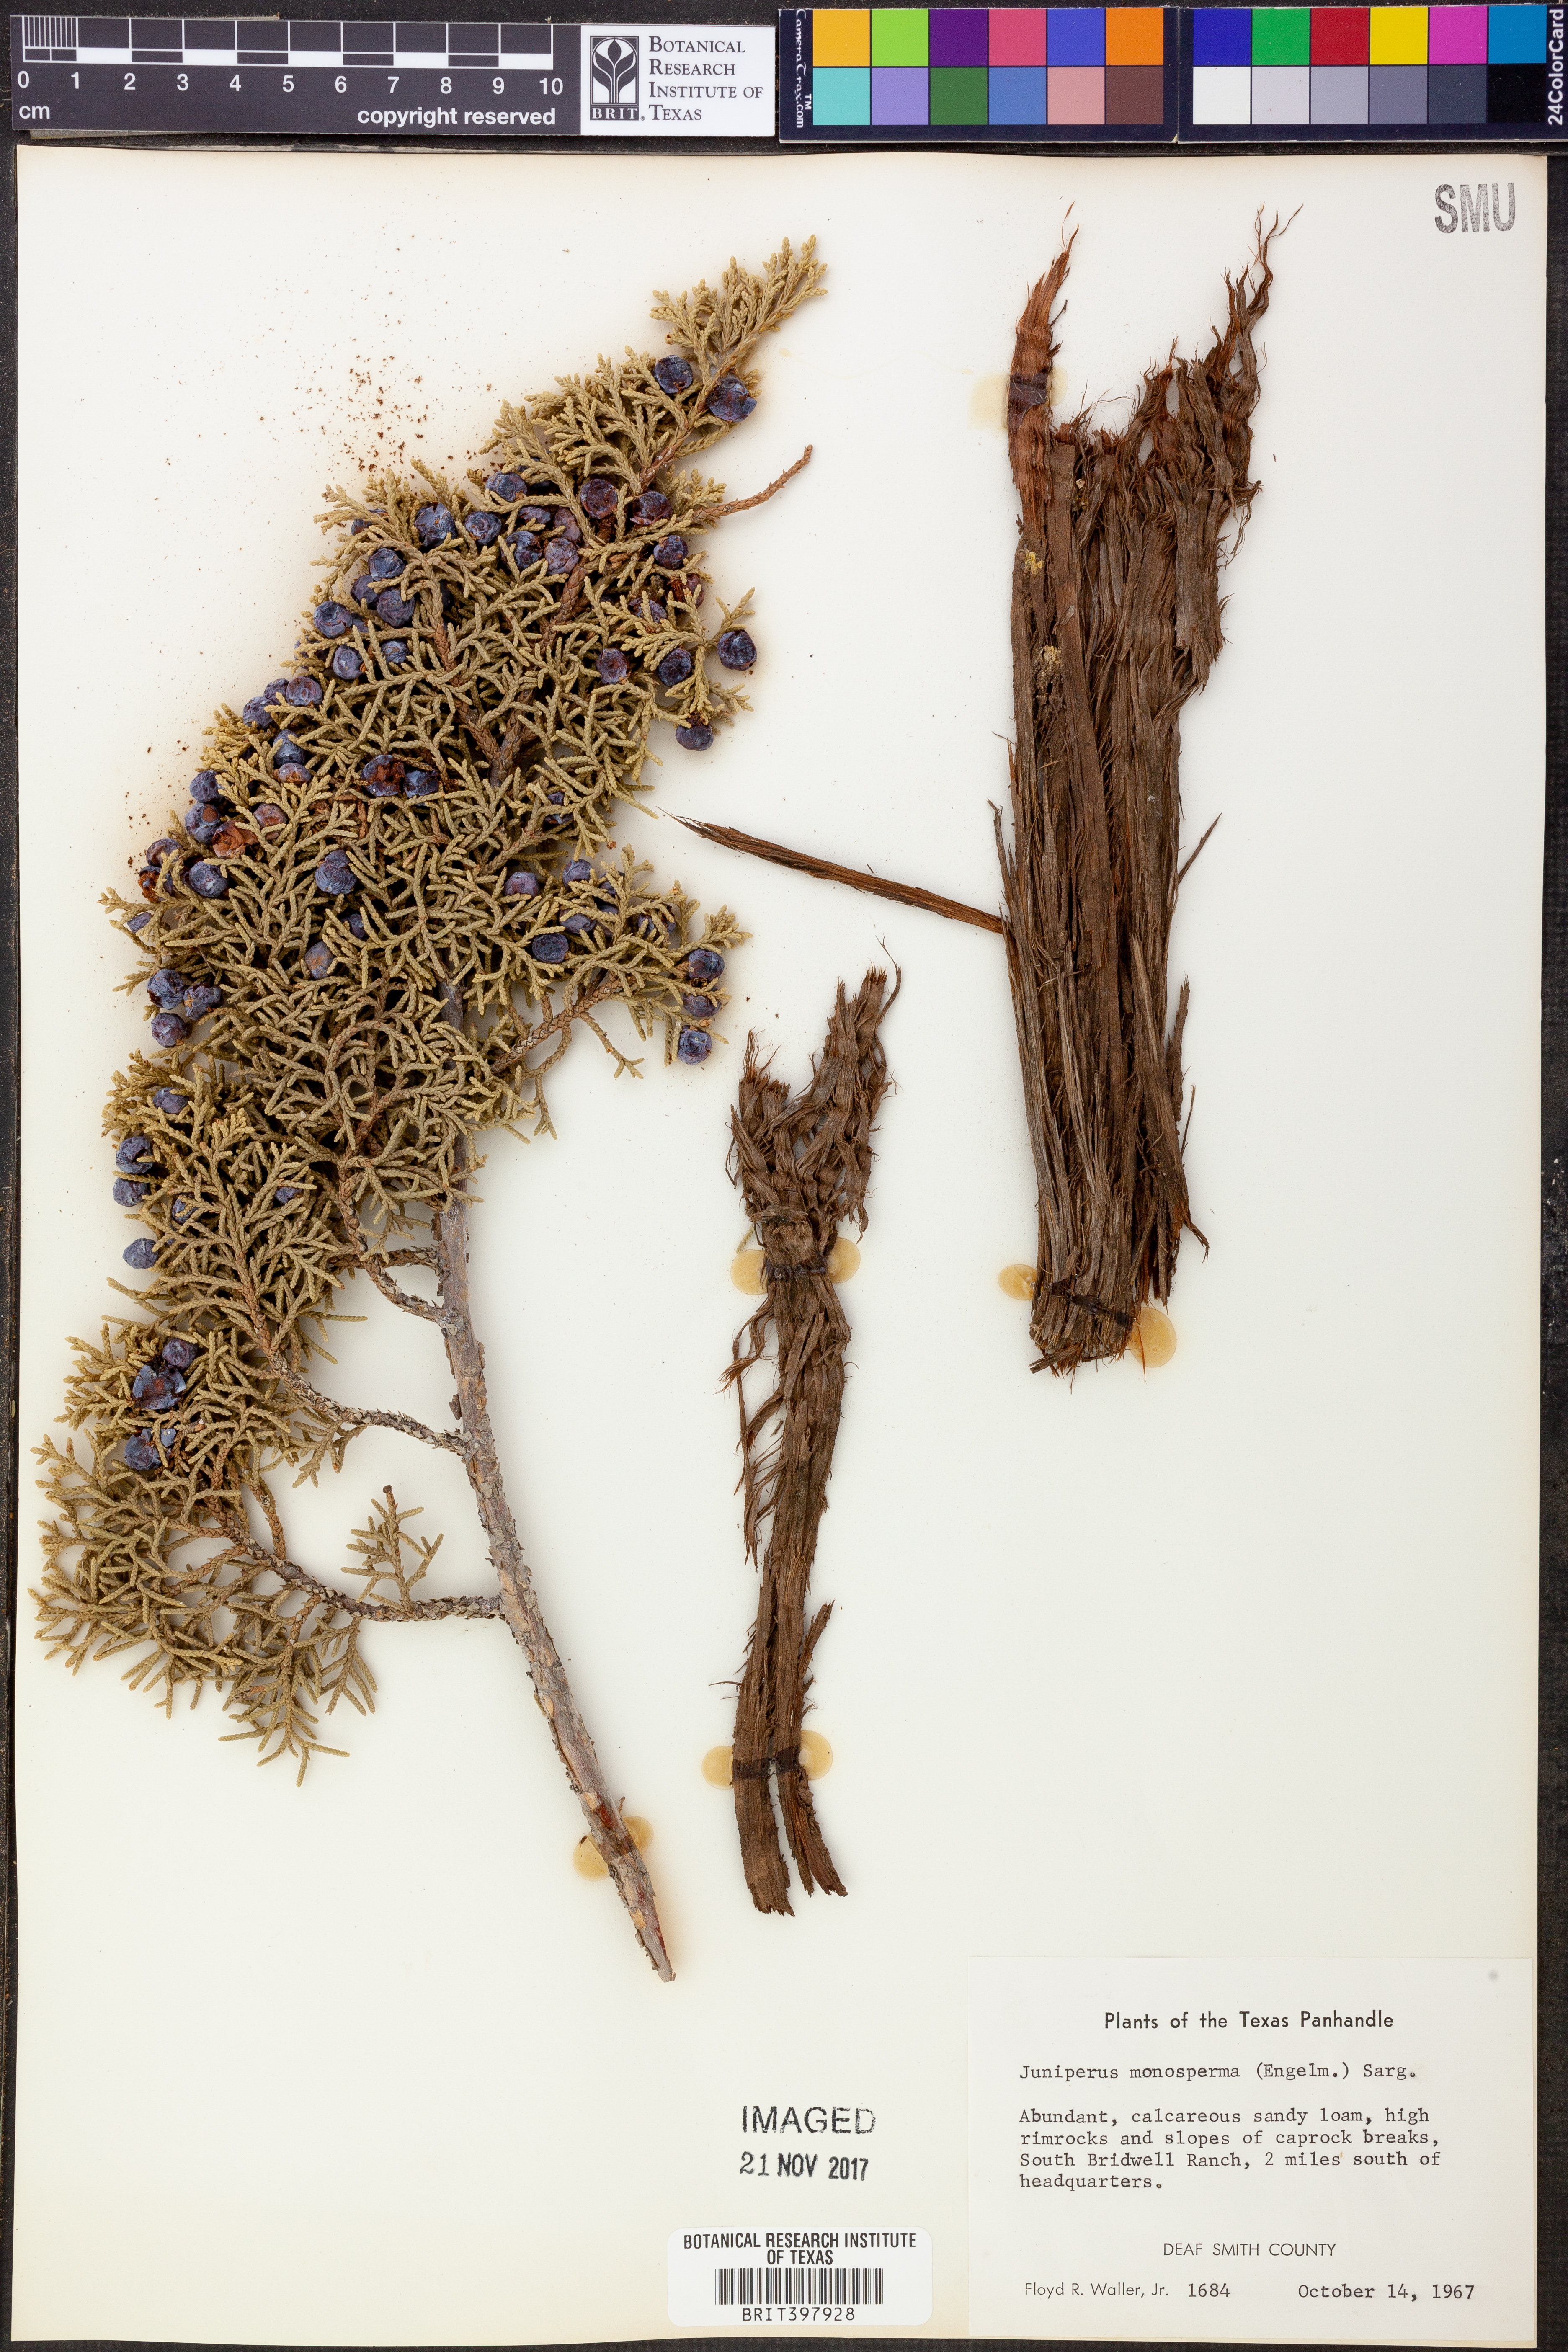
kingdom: Plantae
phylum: Tracheophyta
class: Pinopsida
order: Pinales
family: Cupressaceae
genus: Juniperus
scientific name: Juniperus monosperma
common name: One-seed juniper
